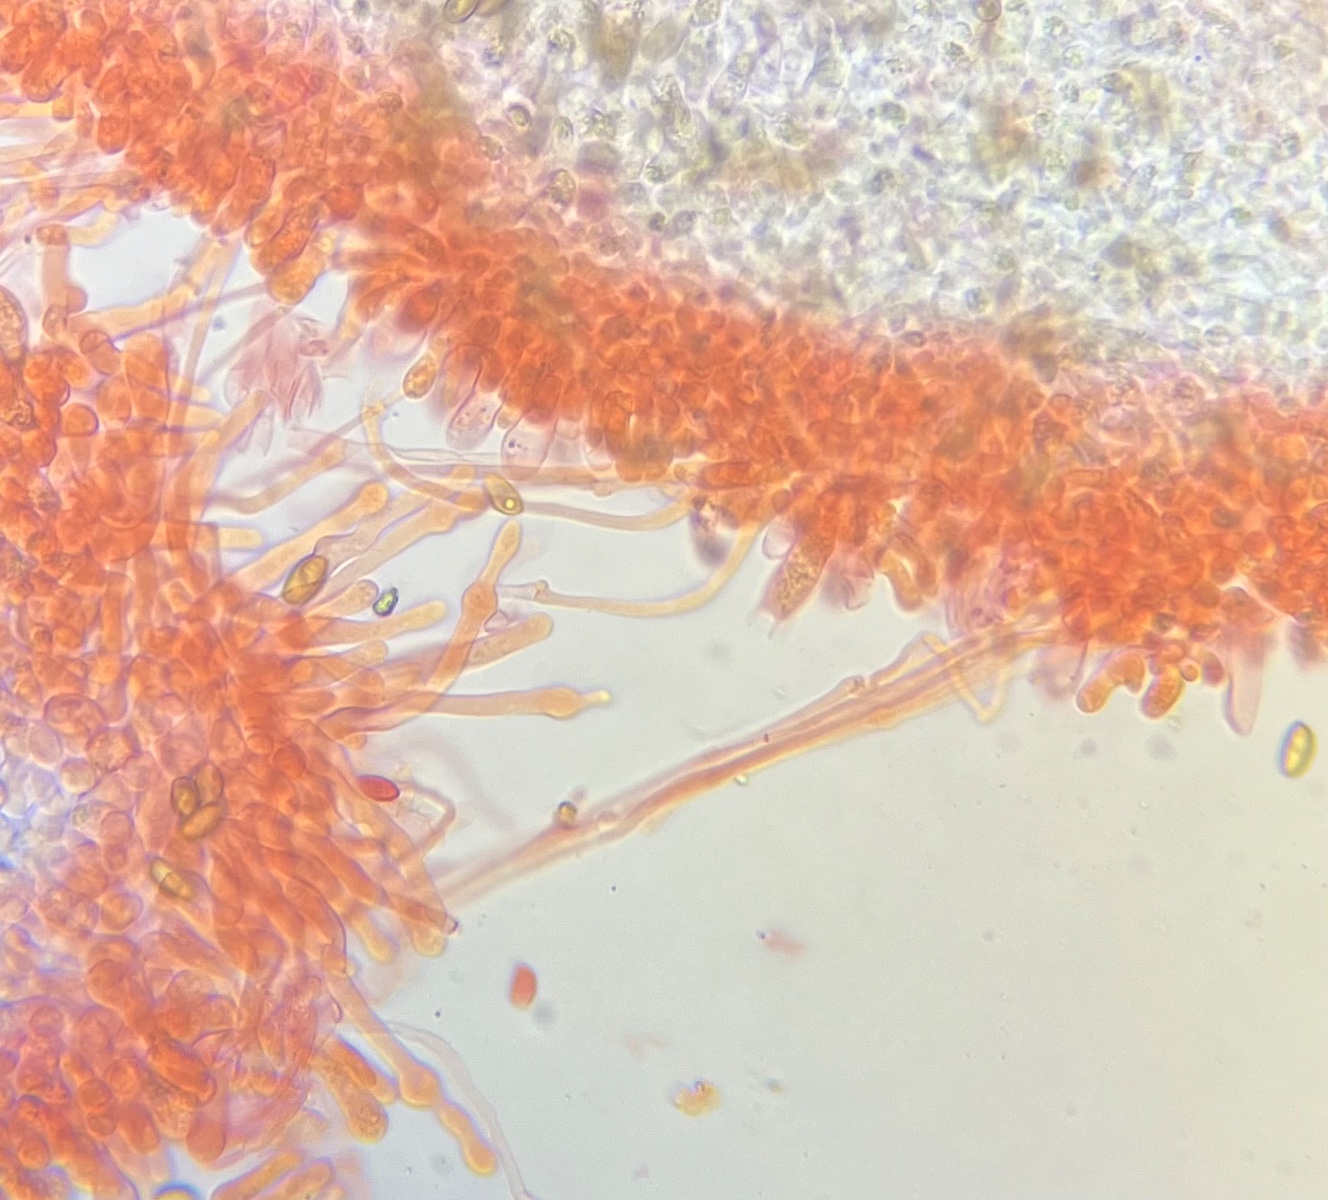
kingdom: Fungi
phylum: Basidiomycota
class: Agaricomycetes
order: Agaricales
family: Hymenogastraceae
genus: Galerina
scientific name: Galerina pumila
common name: honninggul hjelmhat
